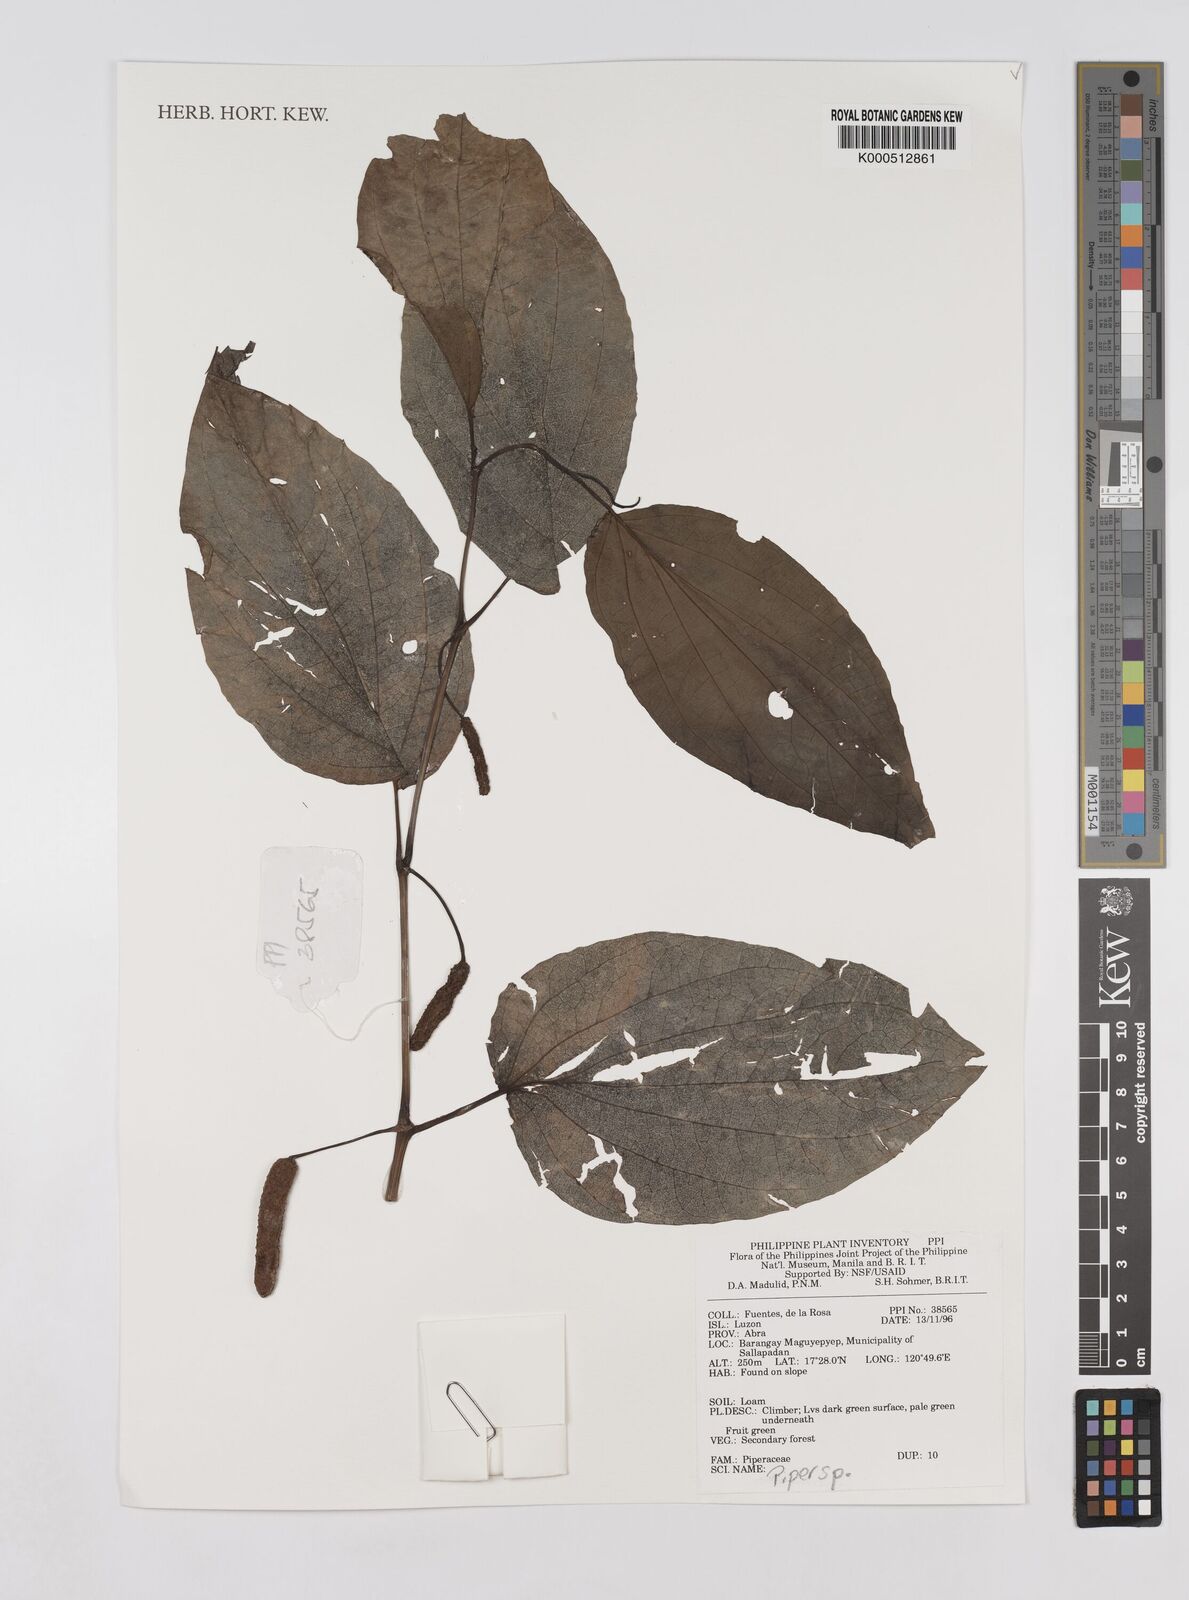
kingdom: Plantae
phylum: Tracheophyta
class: Magnoliopsida
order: Piperales
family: Piperaceae
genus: Piper
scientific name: Piper
